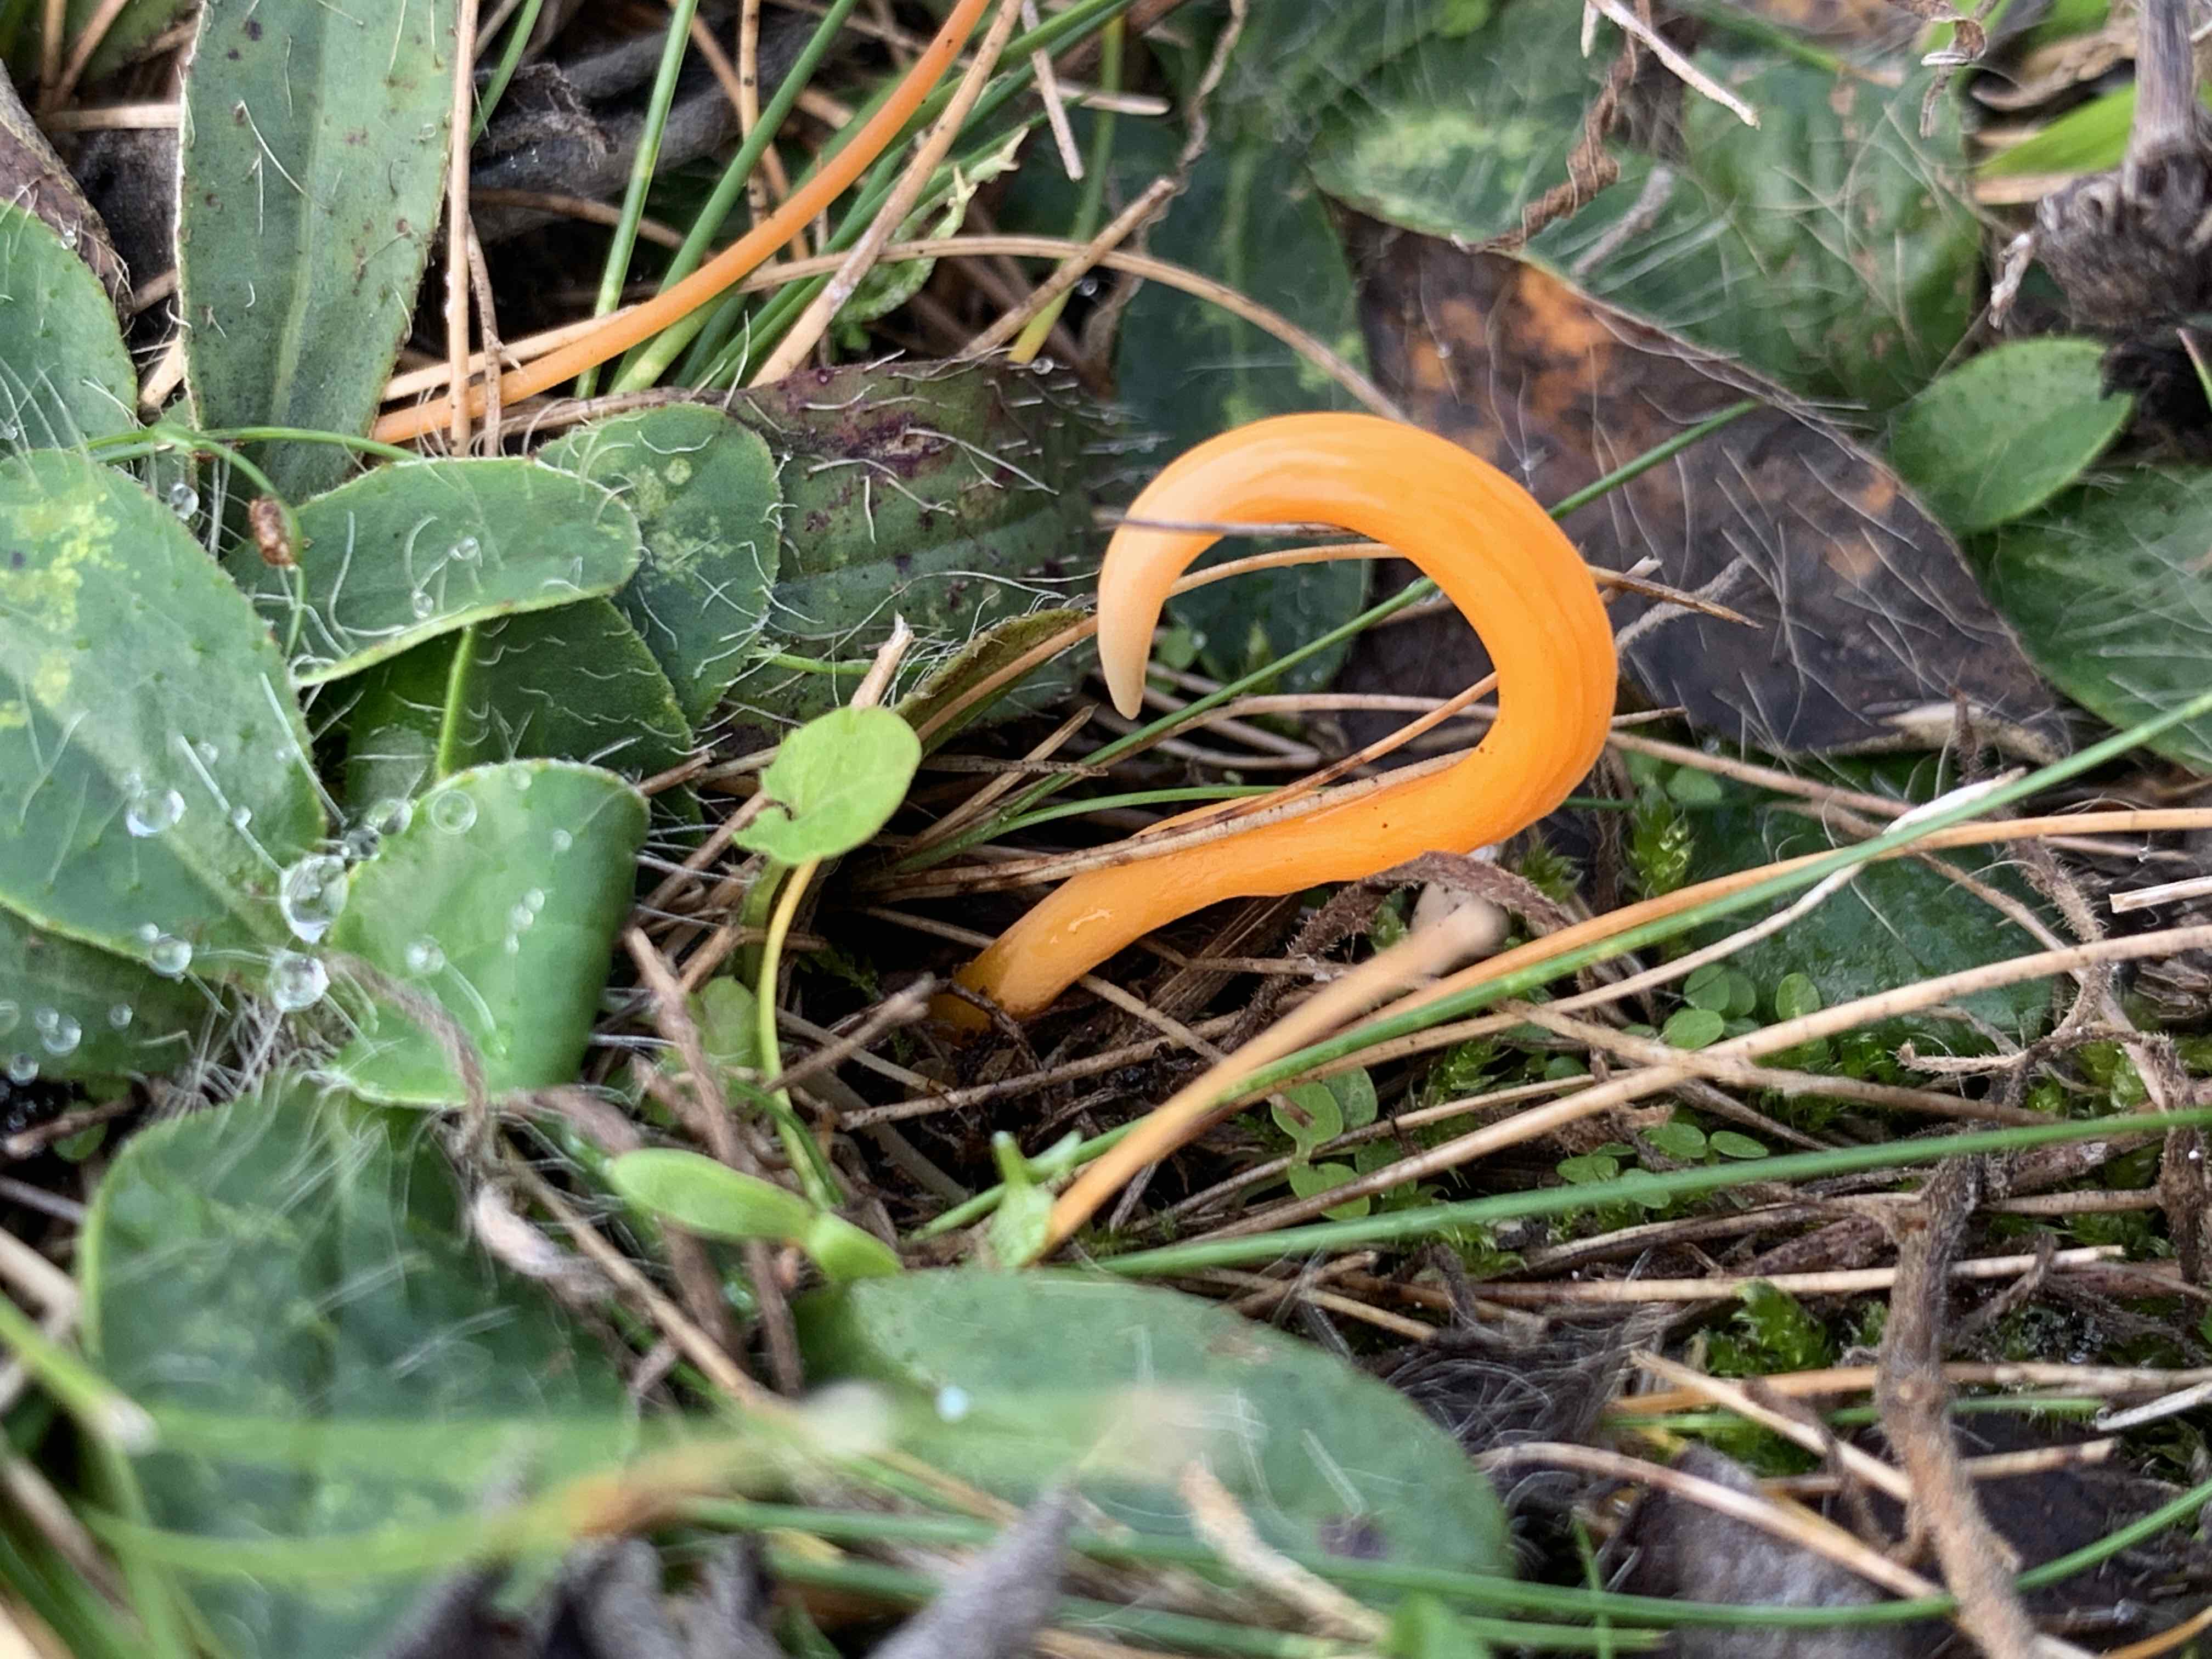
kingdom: Fungi
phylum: Basidiomycota
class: Agaricomycetes
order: Agaricales
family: Clavariaceae
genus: Clavulinopsis
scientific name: Clavulinopsis
